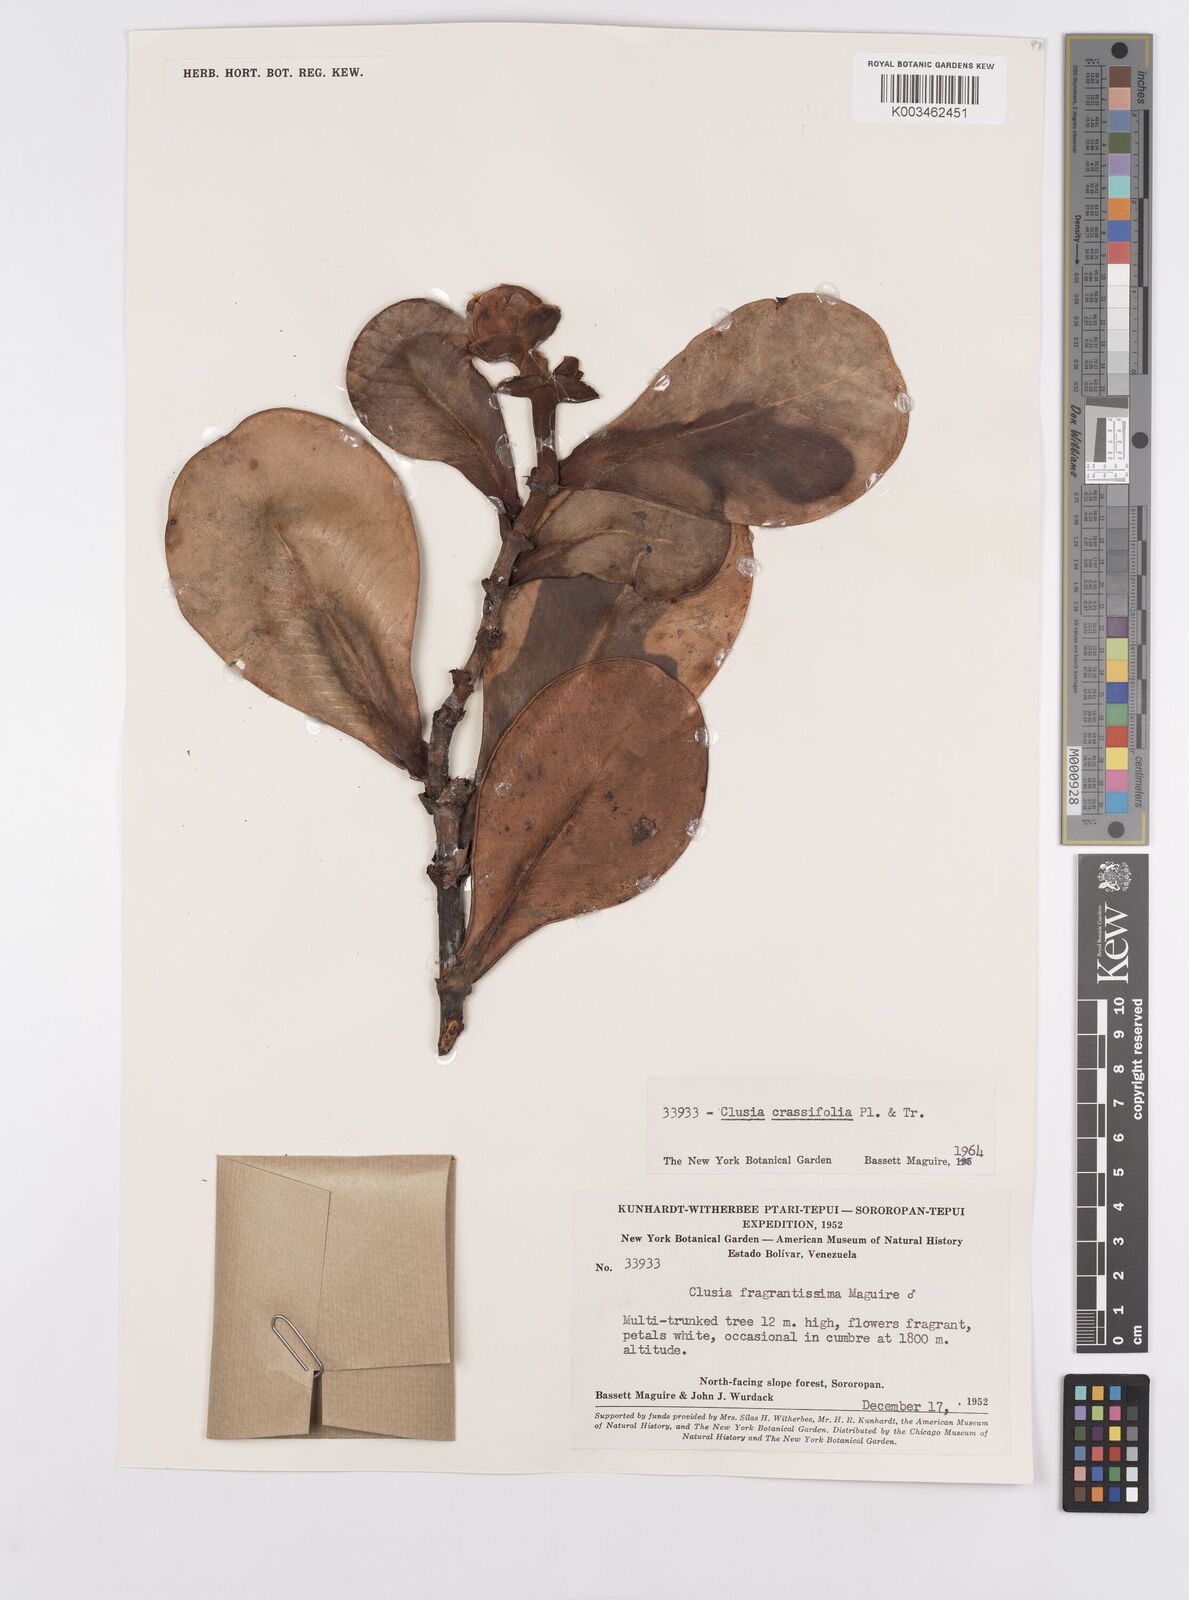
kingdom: Plantae
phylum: Tracheophyta
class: Magnoliopsida
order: Malpighiales
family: Clusiaceae
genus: Clusia
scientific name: Clusia crassifolia
